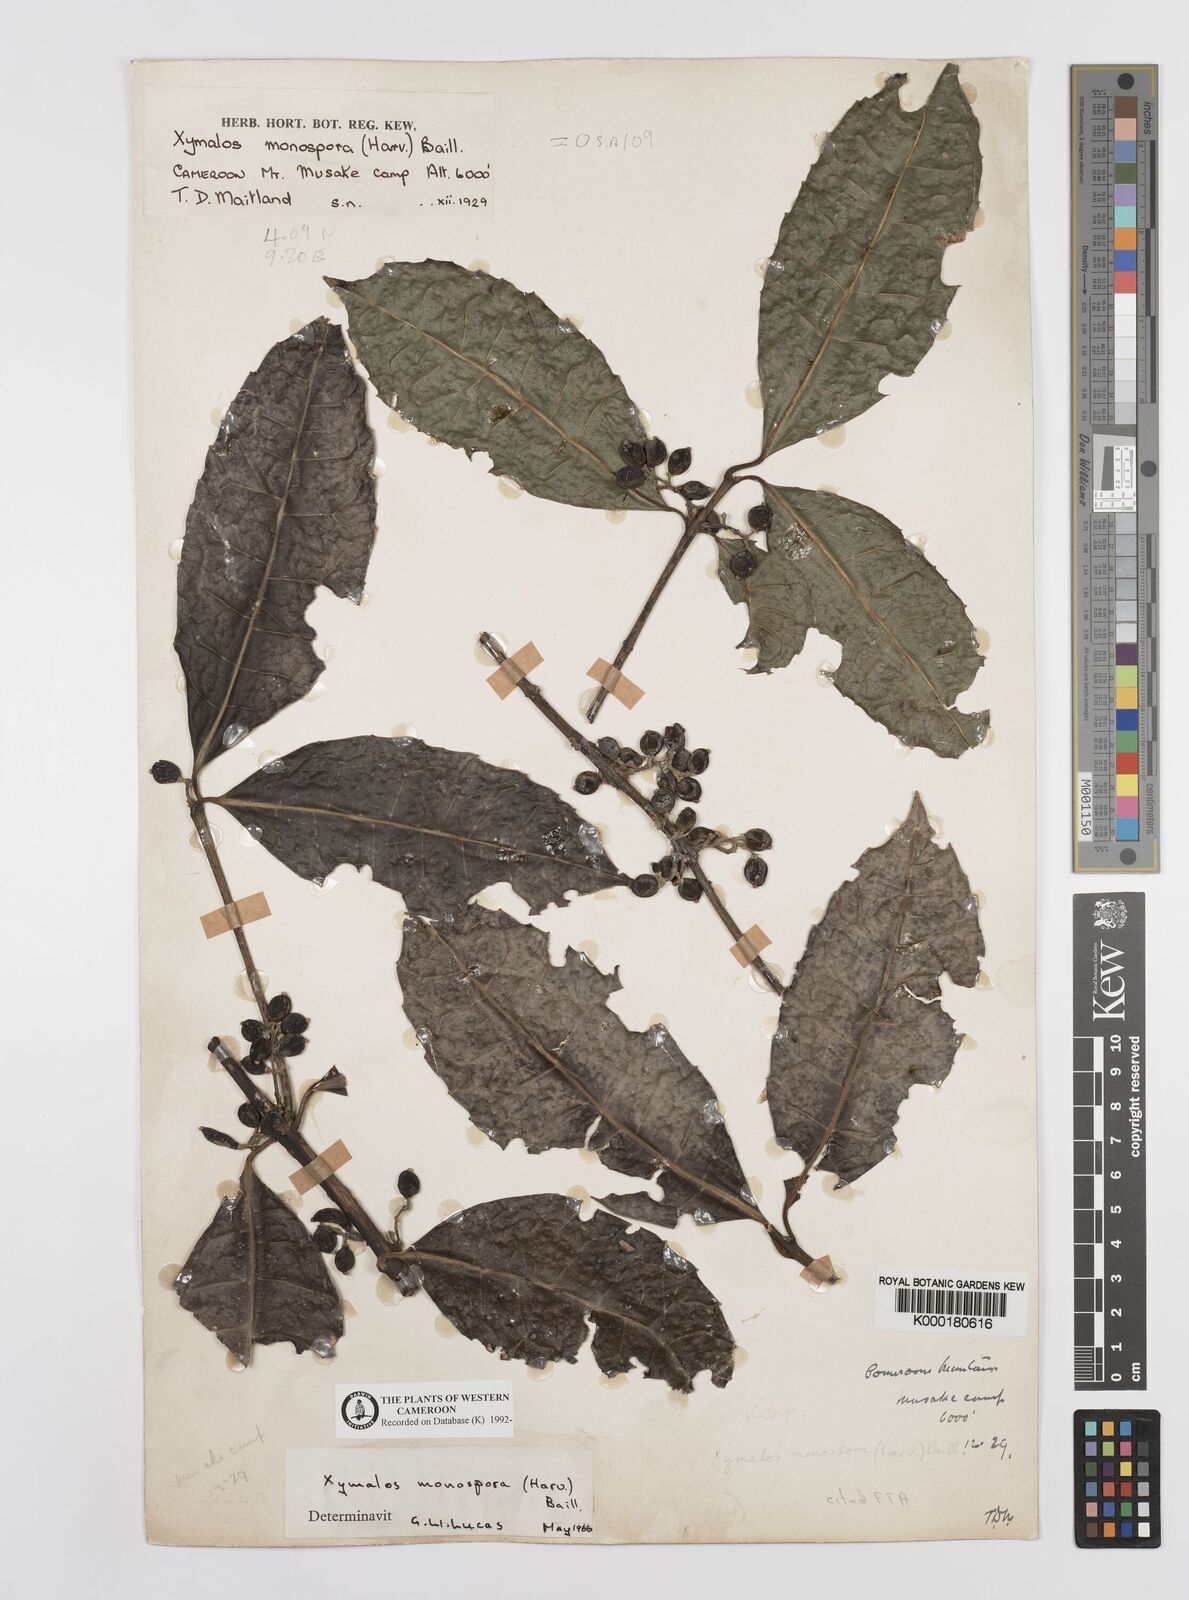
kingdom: Plantae
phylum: Tracheophyta
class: Magnoliopsida
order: Laurales
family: Monimiaceae
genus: Xymalos
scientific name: Xymalos
